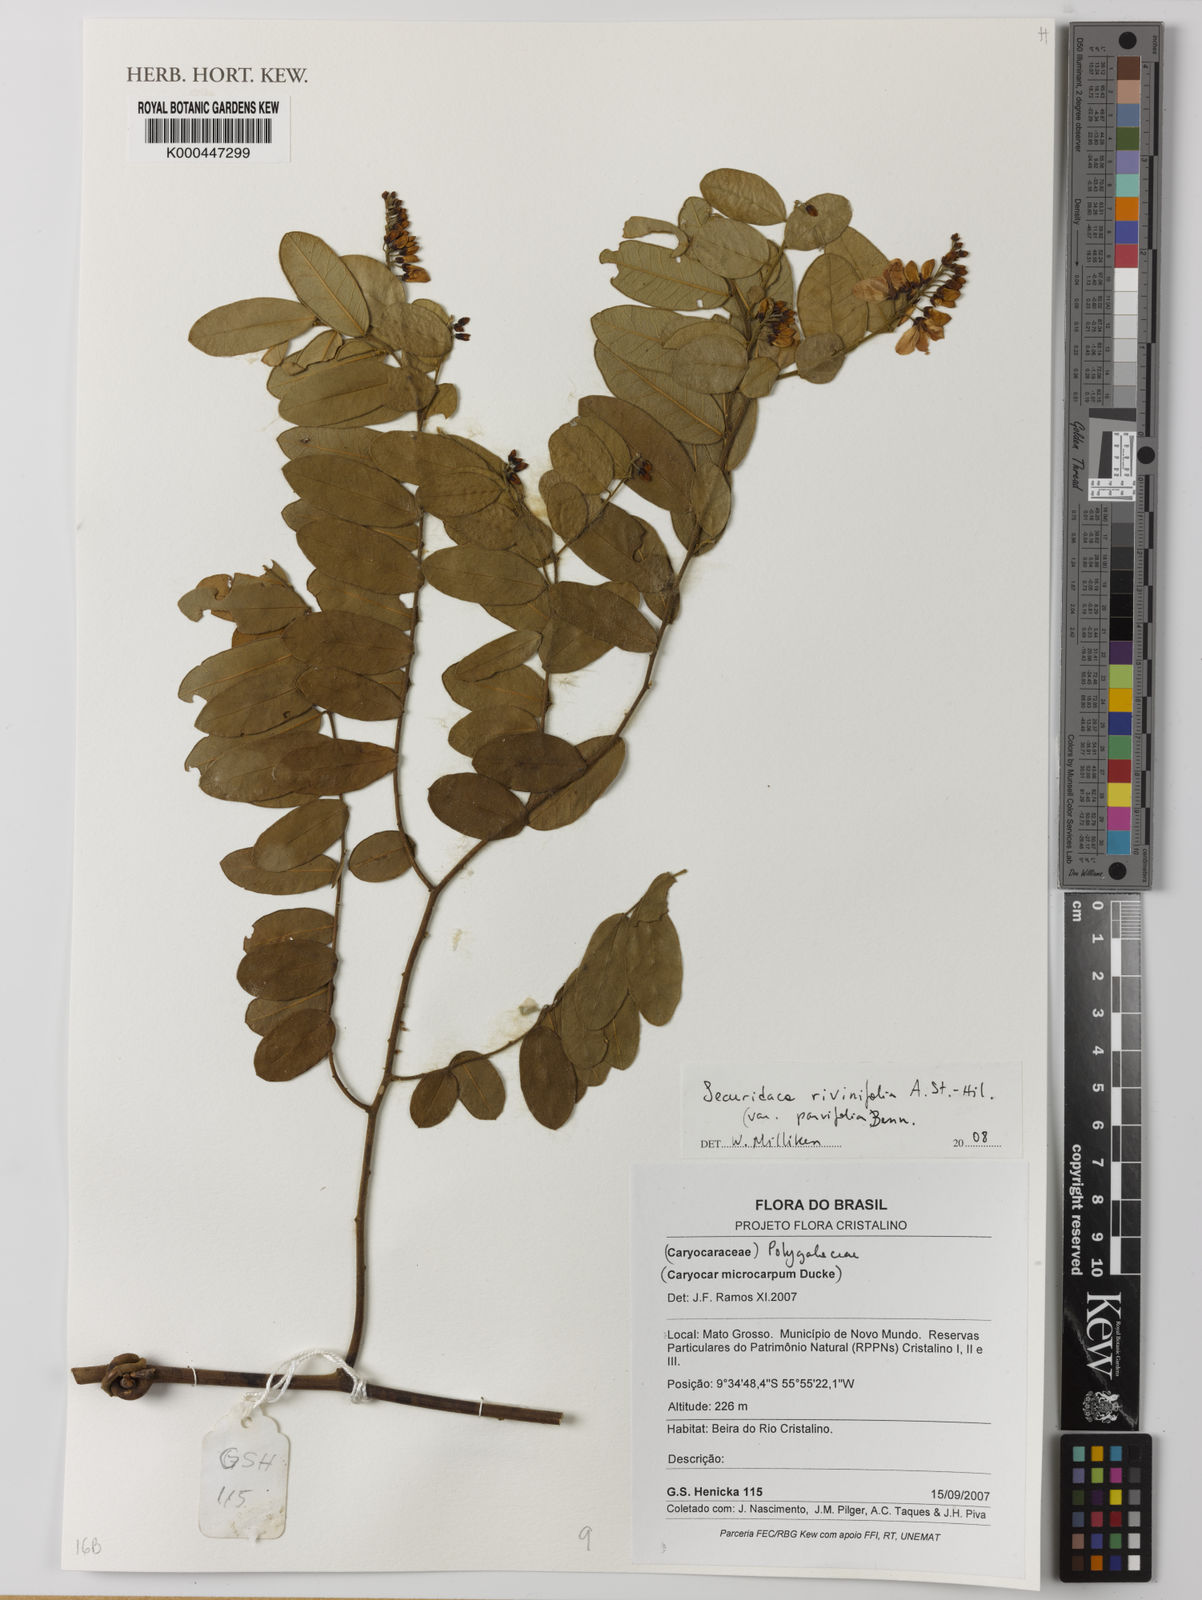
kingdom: Plantae
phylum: Tracheophyta
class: Magnoliopsida
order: Fabales
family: Polygalaceae
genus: Securidaca
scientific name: Securidaca rivinifolia
